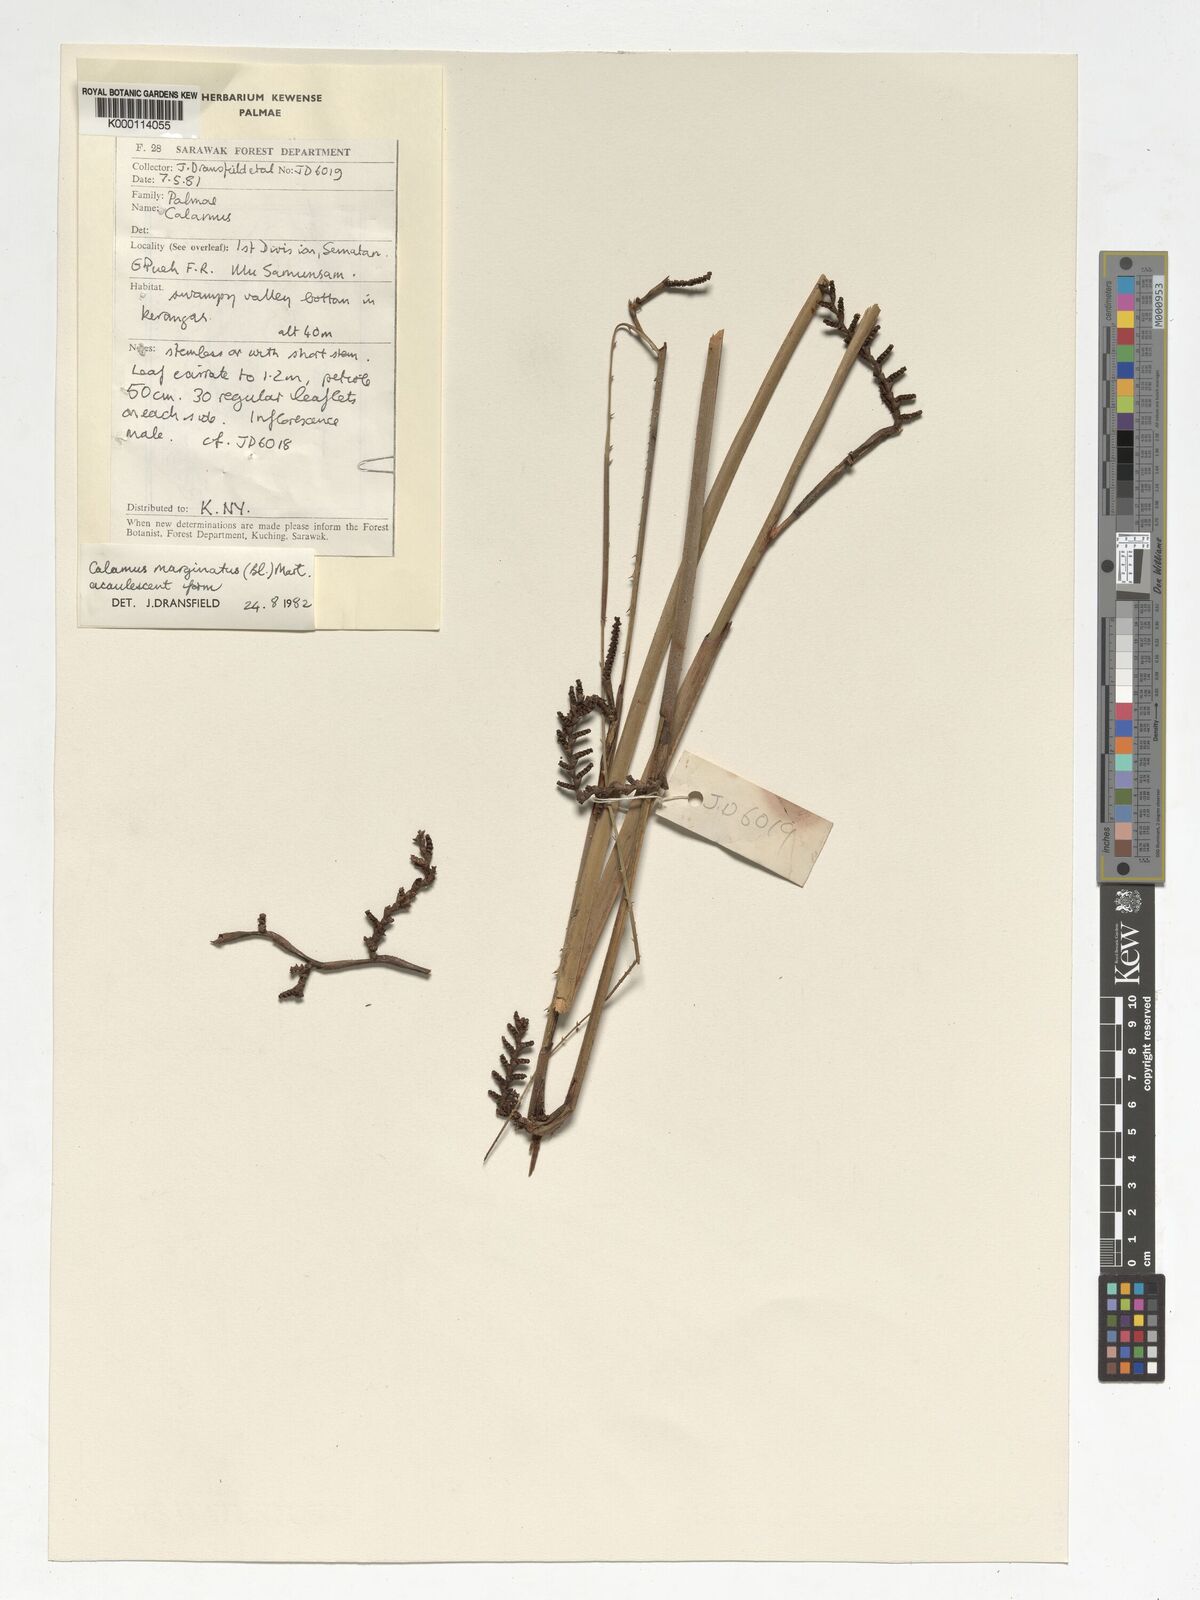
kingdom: Plantae
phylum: Tracheophyta
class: Liliopsida
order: Arecales
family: Arecaceae
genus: Calamus
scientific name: Calamus
